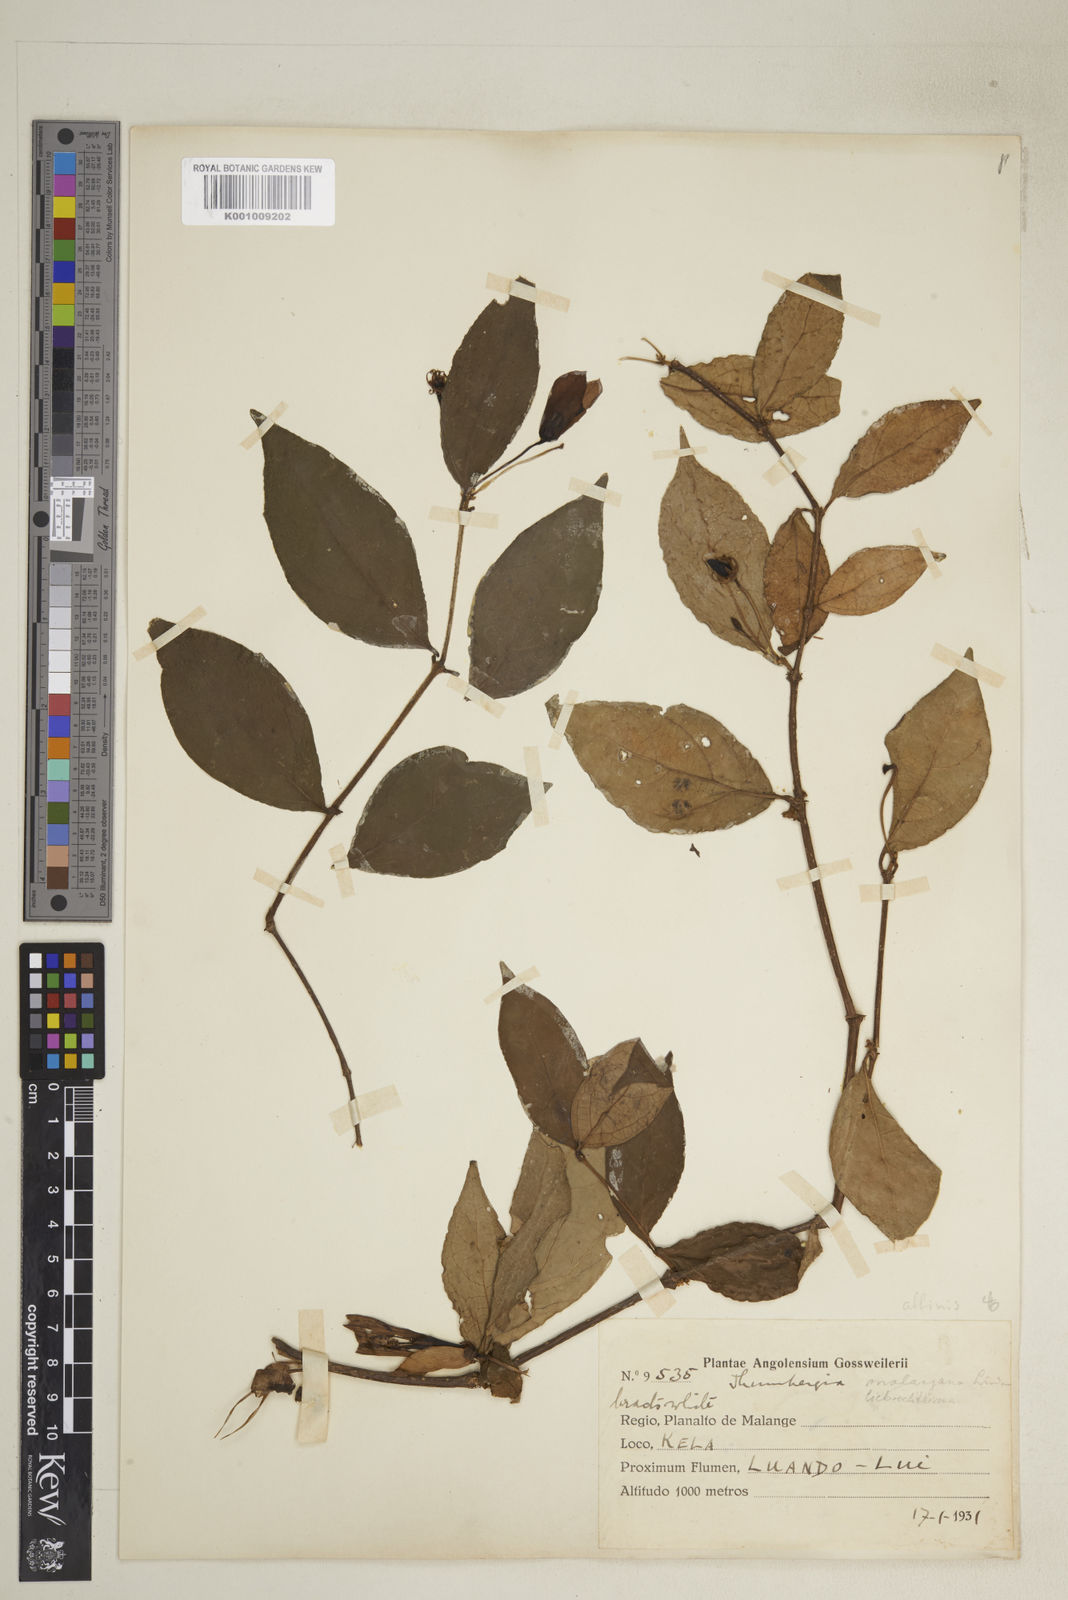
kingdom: Plantae
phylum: Tracheophyta
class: Magnoliopsida
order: Lamiales
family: Acanthaceae
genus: Thunbergia
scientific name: Thunbergia affinis
